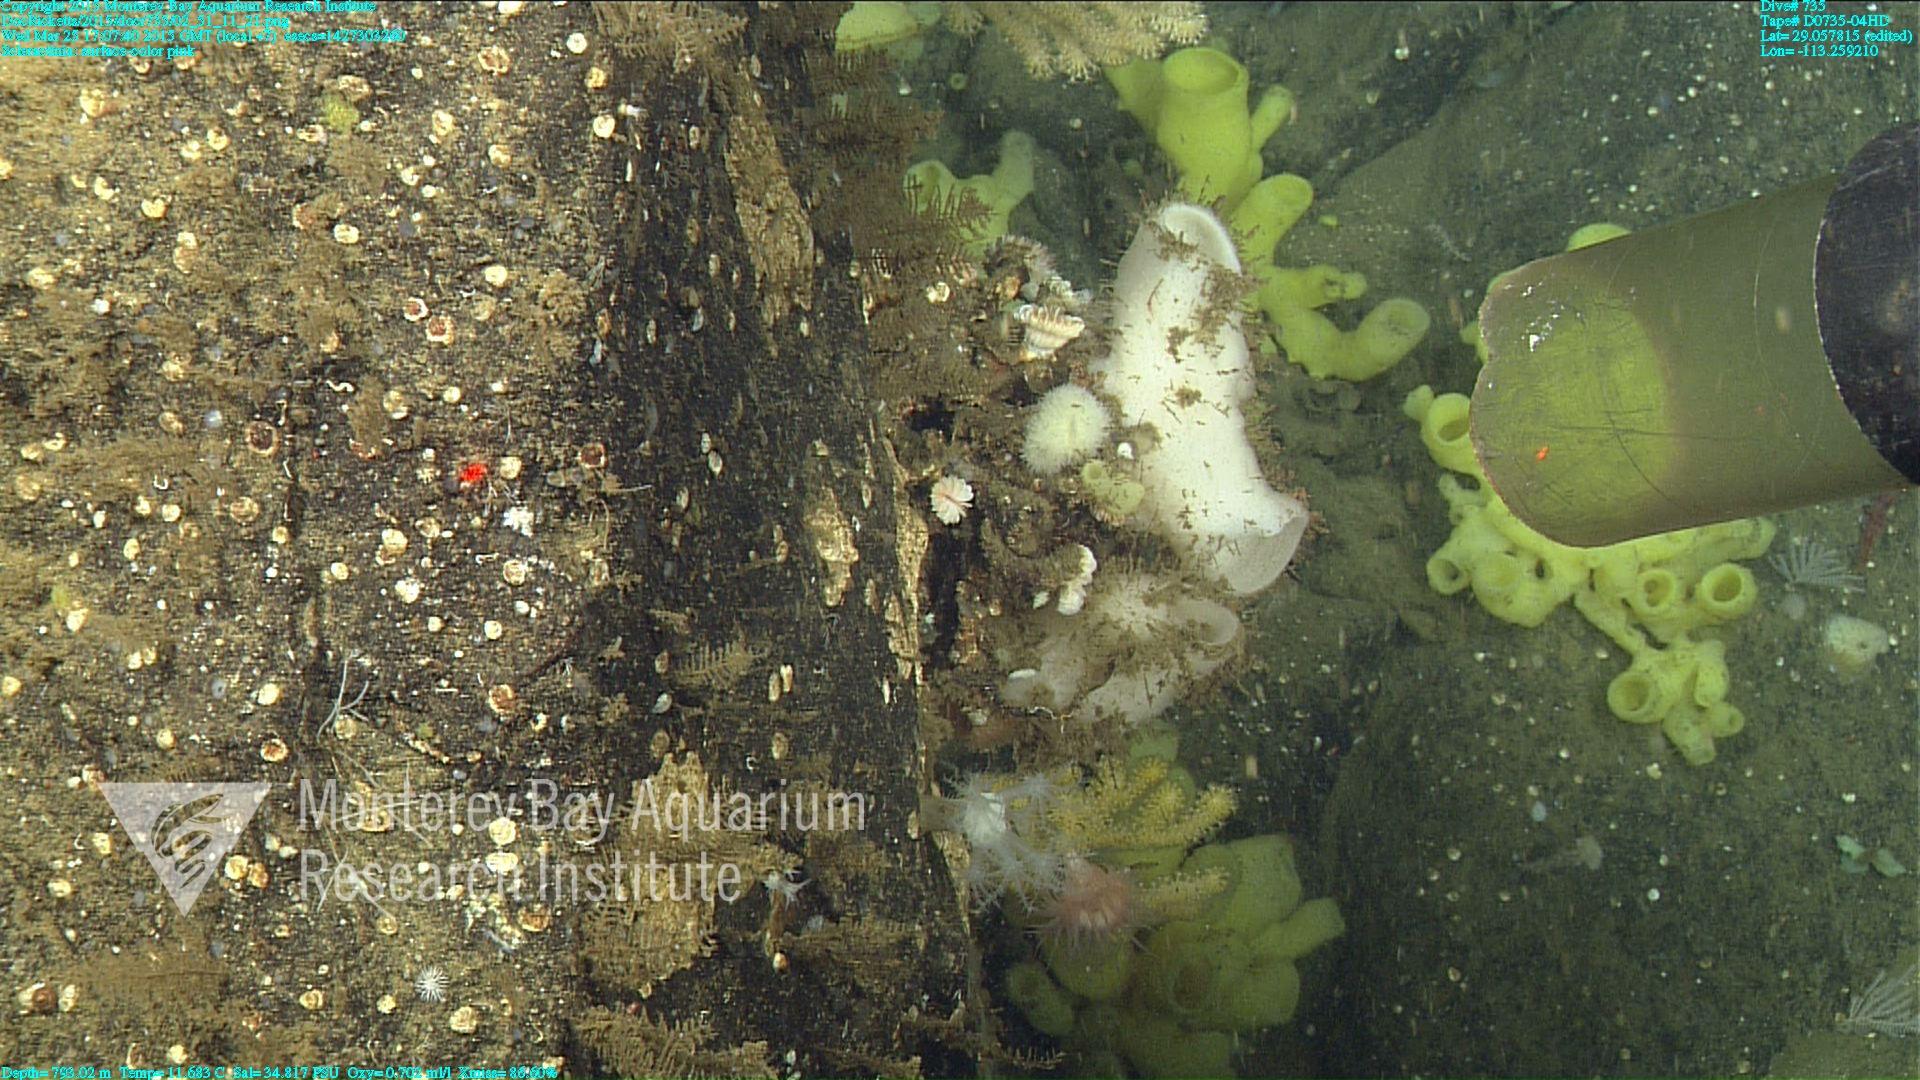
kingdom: Animalia
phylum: Cnidaria
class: Anthozoa
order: Scleractinia
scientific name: Scleractinia
